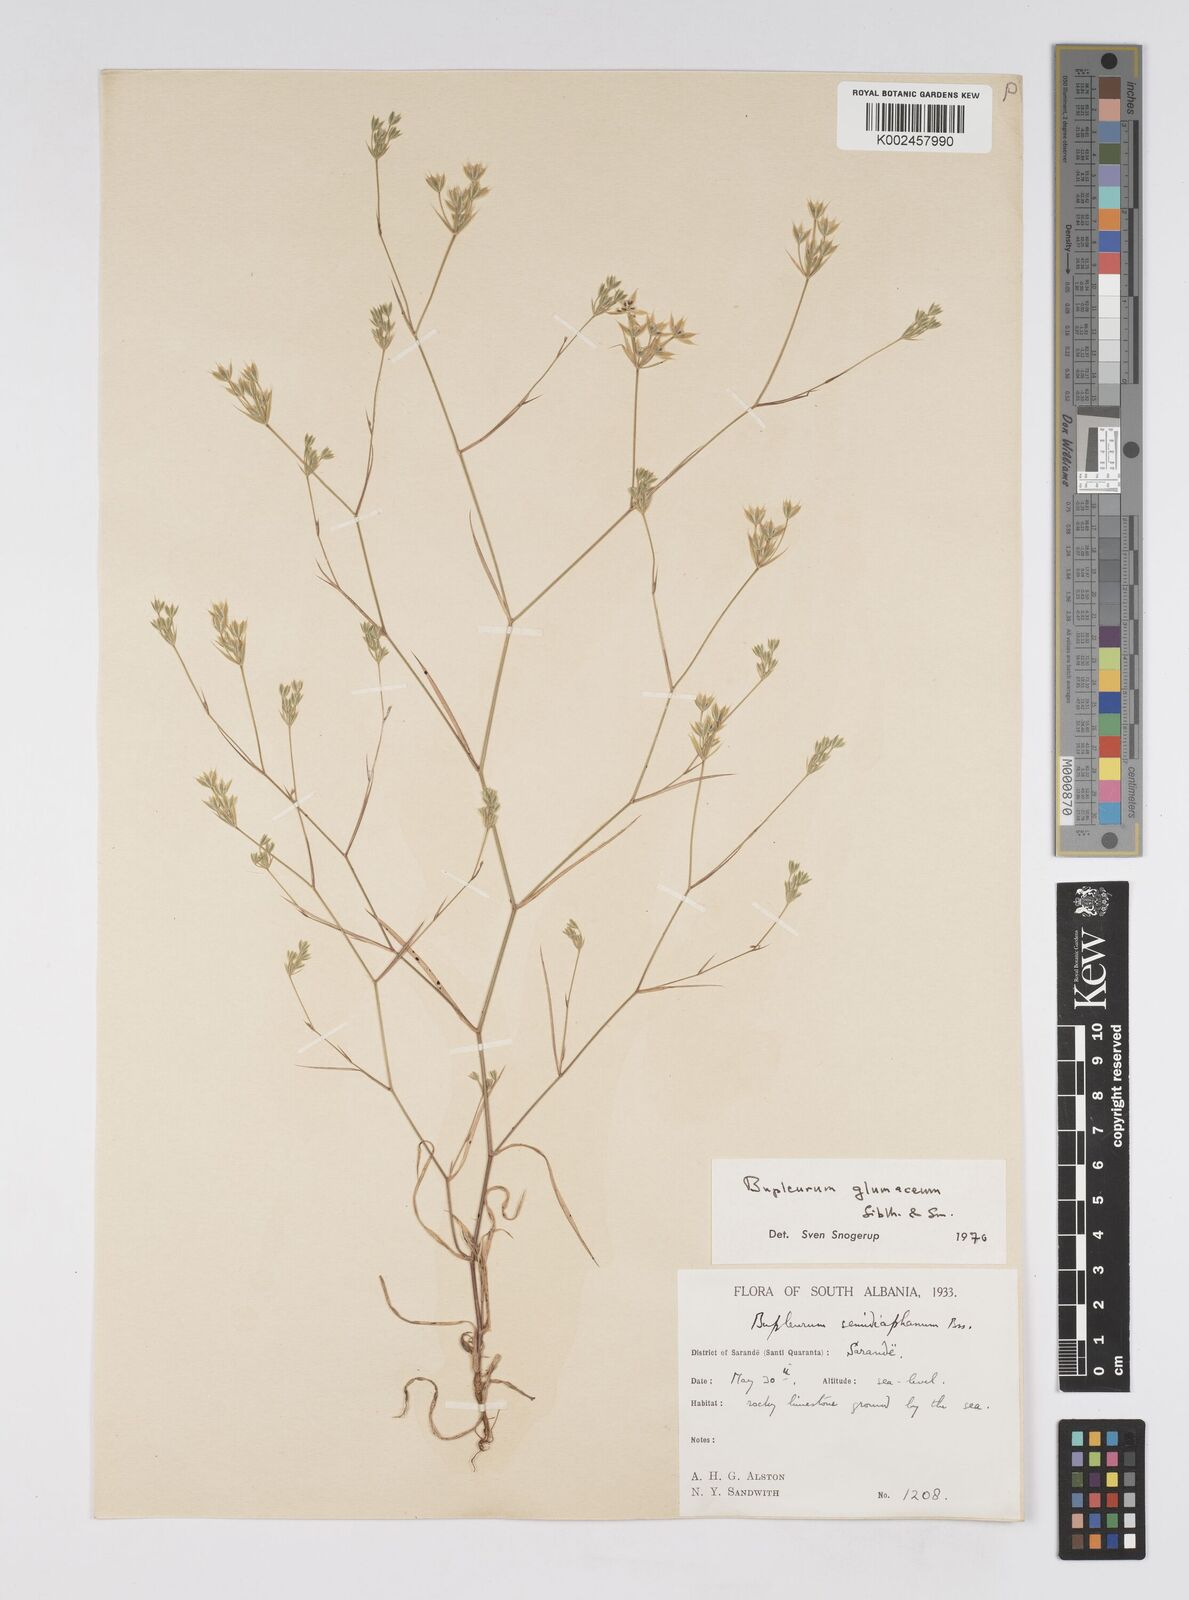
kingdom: Plantae
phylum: Tracheophyta
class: Magnoliopsida
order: Apiales
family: Apiaceae
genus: Bupleurum
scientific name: Bupleurum glumaceum
